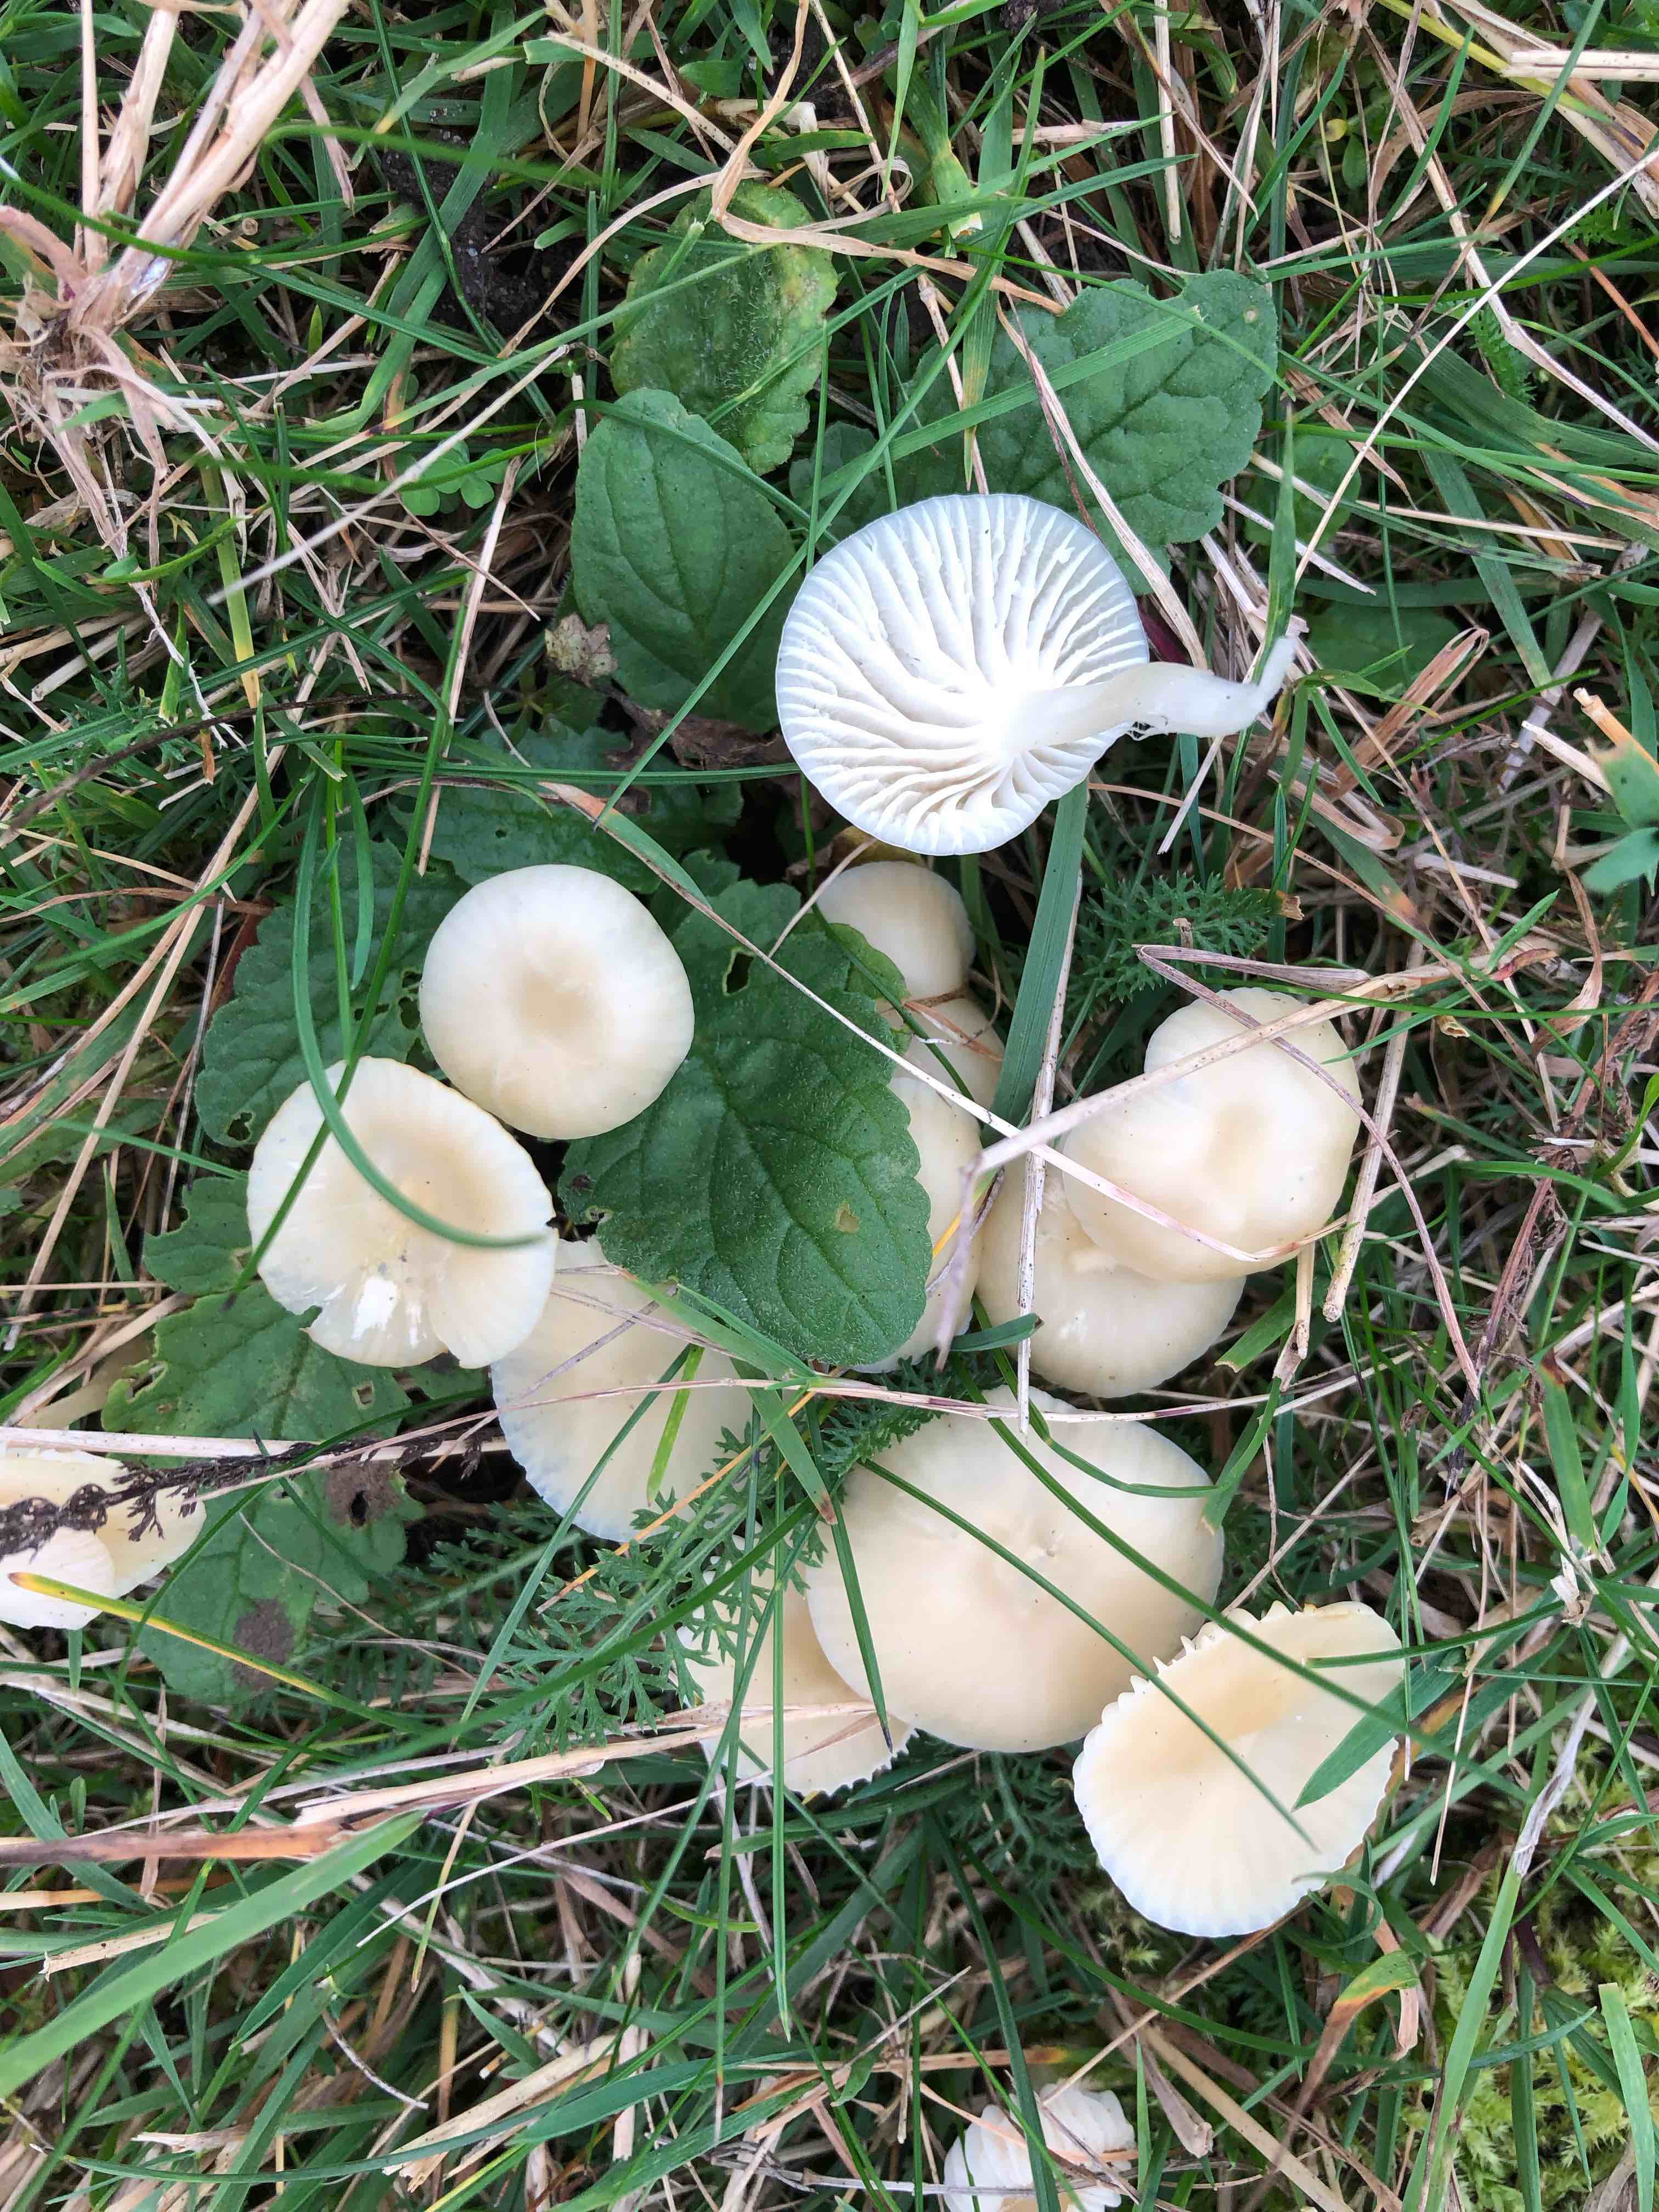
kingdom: Fungi
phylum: Basidiomycota
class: Agaricomycetes
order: Agaricales
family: Hygrophoraceae
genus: Cuphophyllus
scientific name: Cuphophyllus russocoriaceus
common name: ruslæder-vokshat
